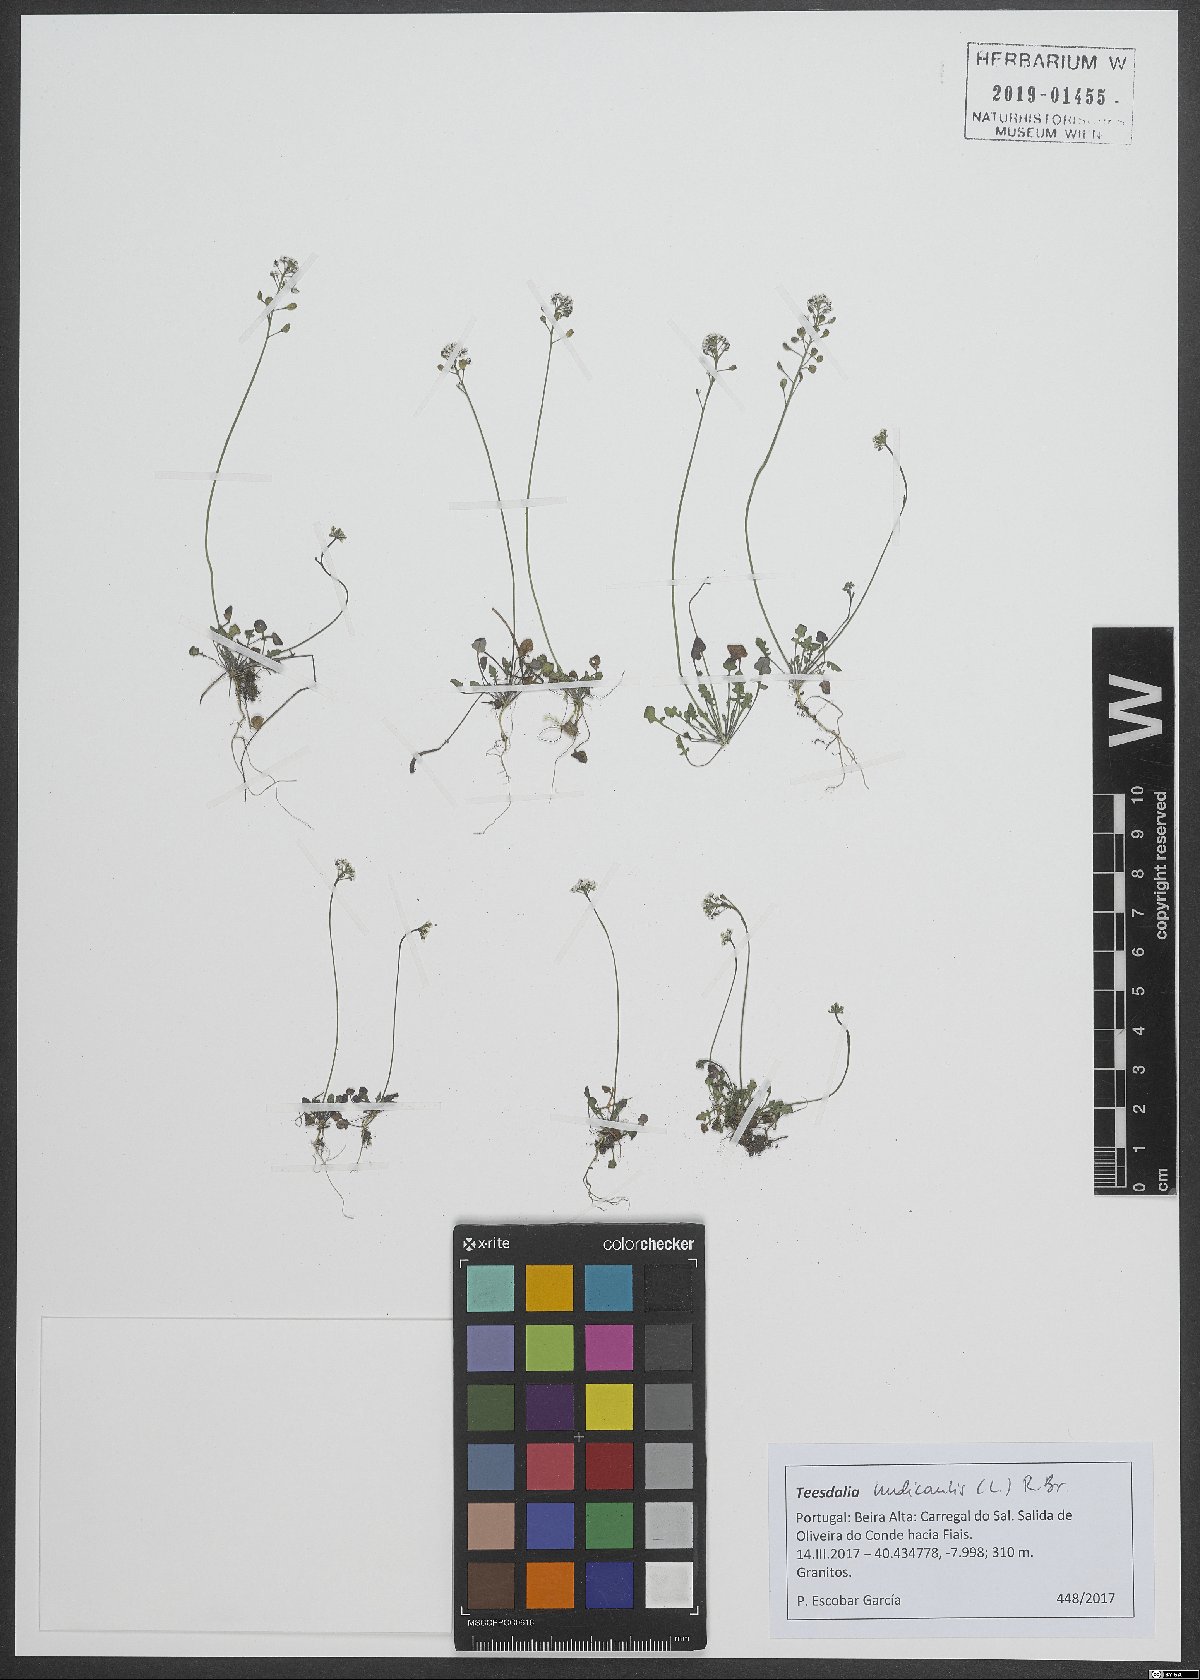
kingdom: Plantae
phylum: Tracheophyta
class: Magnoliopsida
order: Brassicales
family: Brassicaceae
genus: Teesdalia
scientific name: Teesdalia nudicaulis
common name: Shepherd's cress
